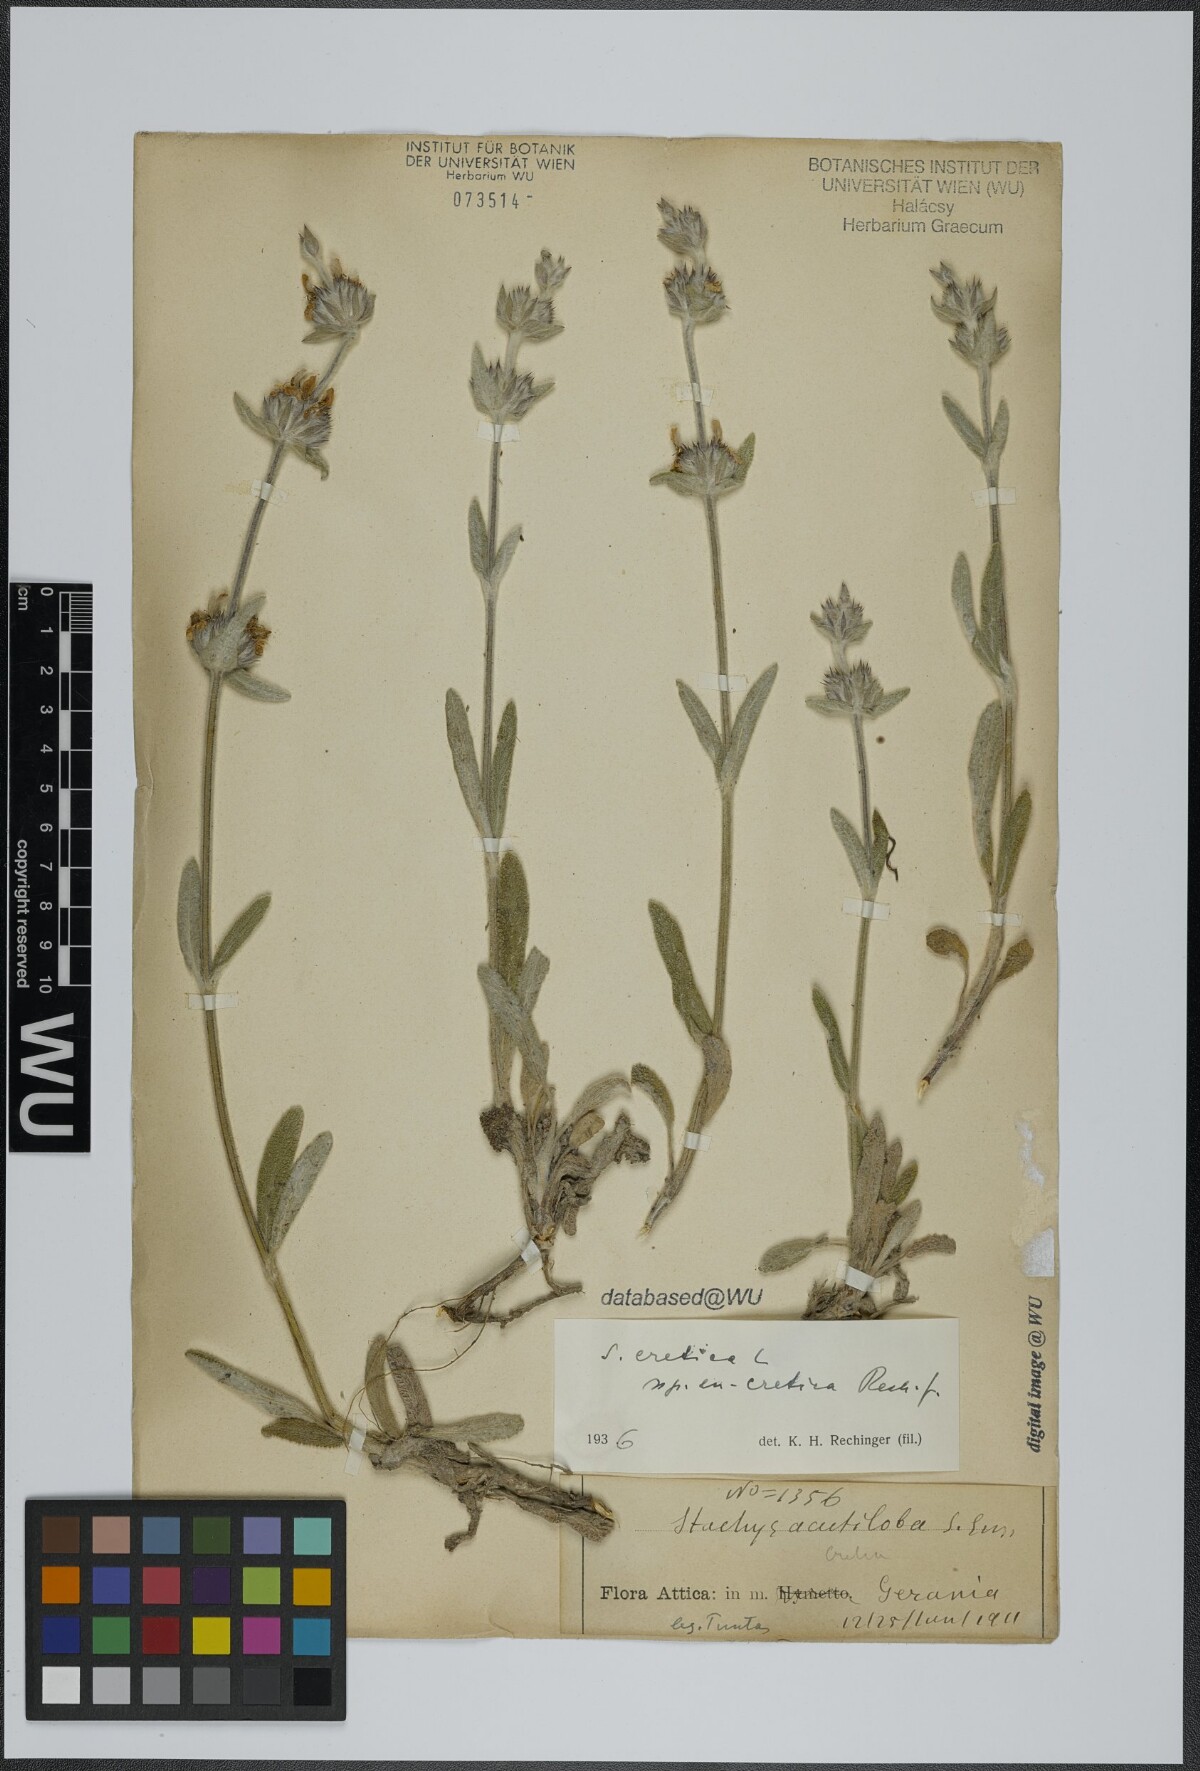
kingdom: Plantae
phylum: Tracheophyta
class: Magnoliopsida
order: Lamiales
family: Lamiaceae
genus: Stachys
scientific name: Stachys cretica
